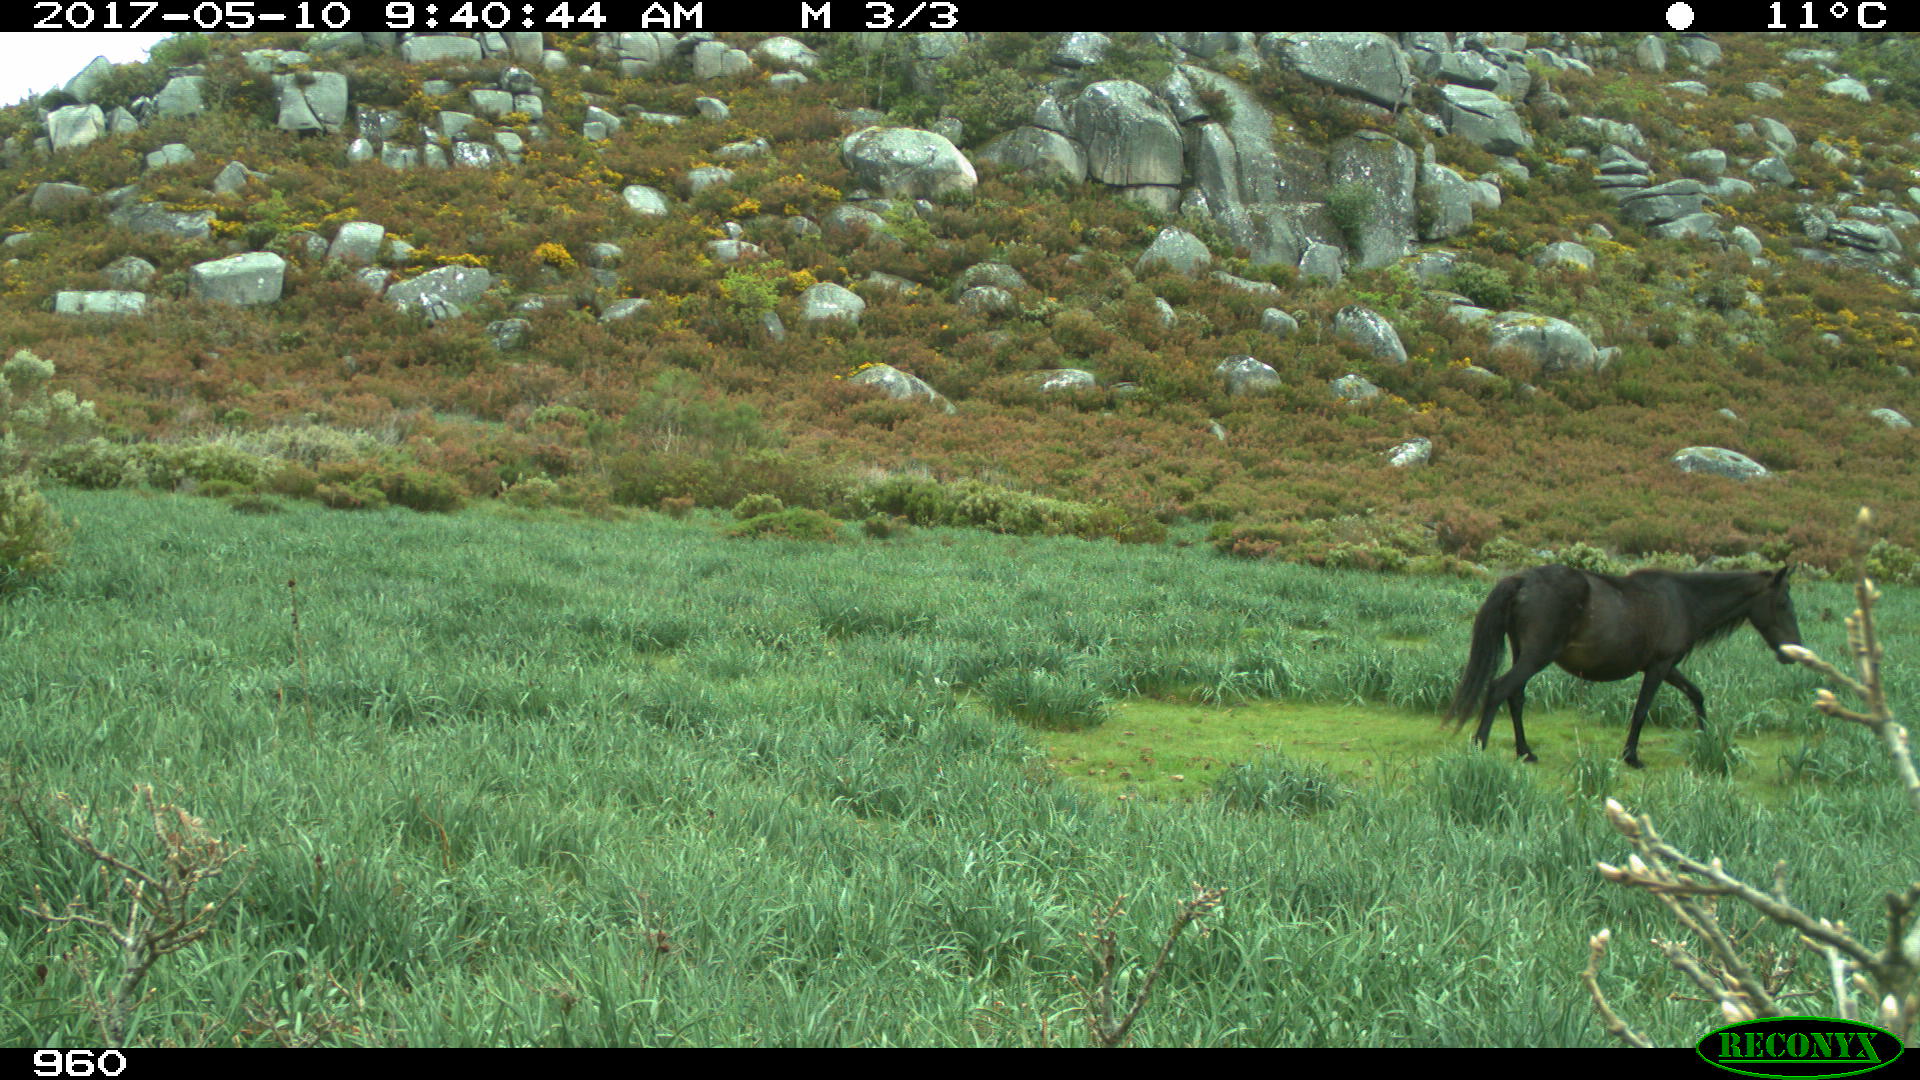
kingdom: Animalia
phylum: Chordata
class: Mammalia
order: Perissodactyla
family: Equidae
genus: Equus
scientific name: Equus caballus
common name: Horse
